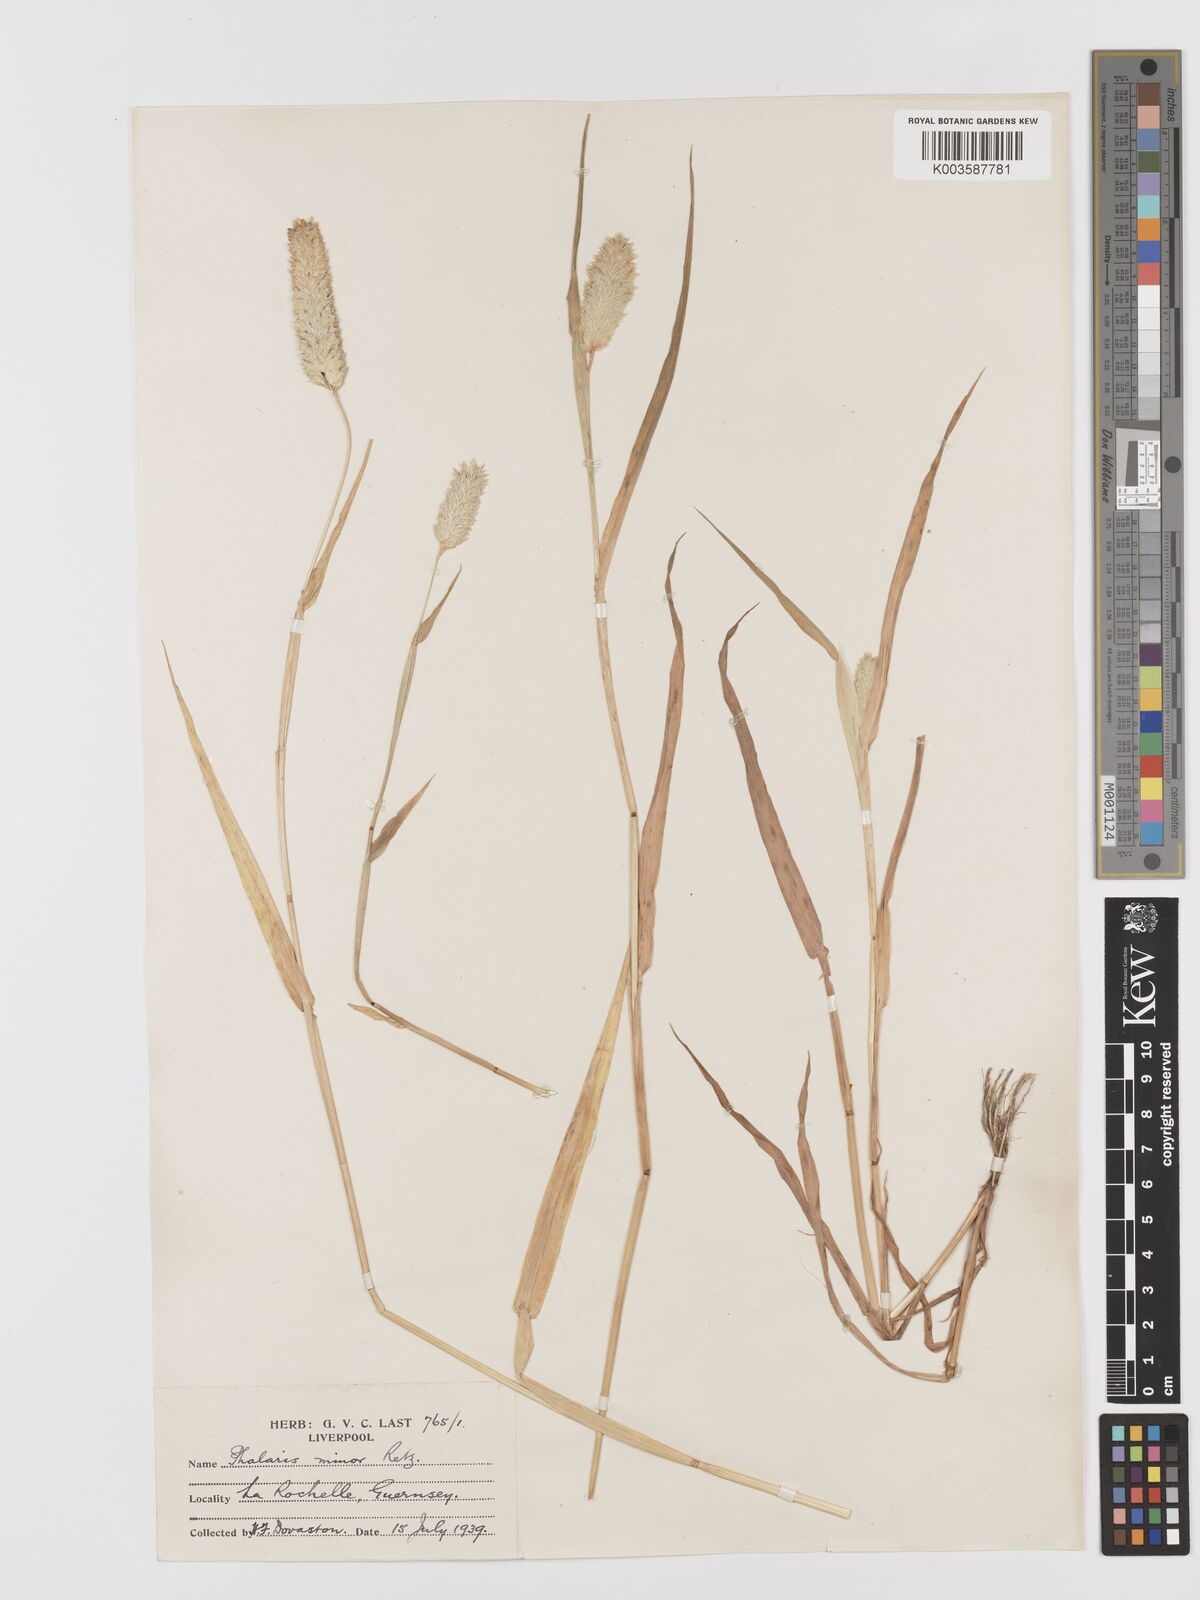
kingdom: Plantae
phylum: Tracheophyta
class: Liliopsida
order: Poales
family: Poaceae
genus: Phalaris
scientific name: Phalaris minor
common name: Littleseed canarygrass
